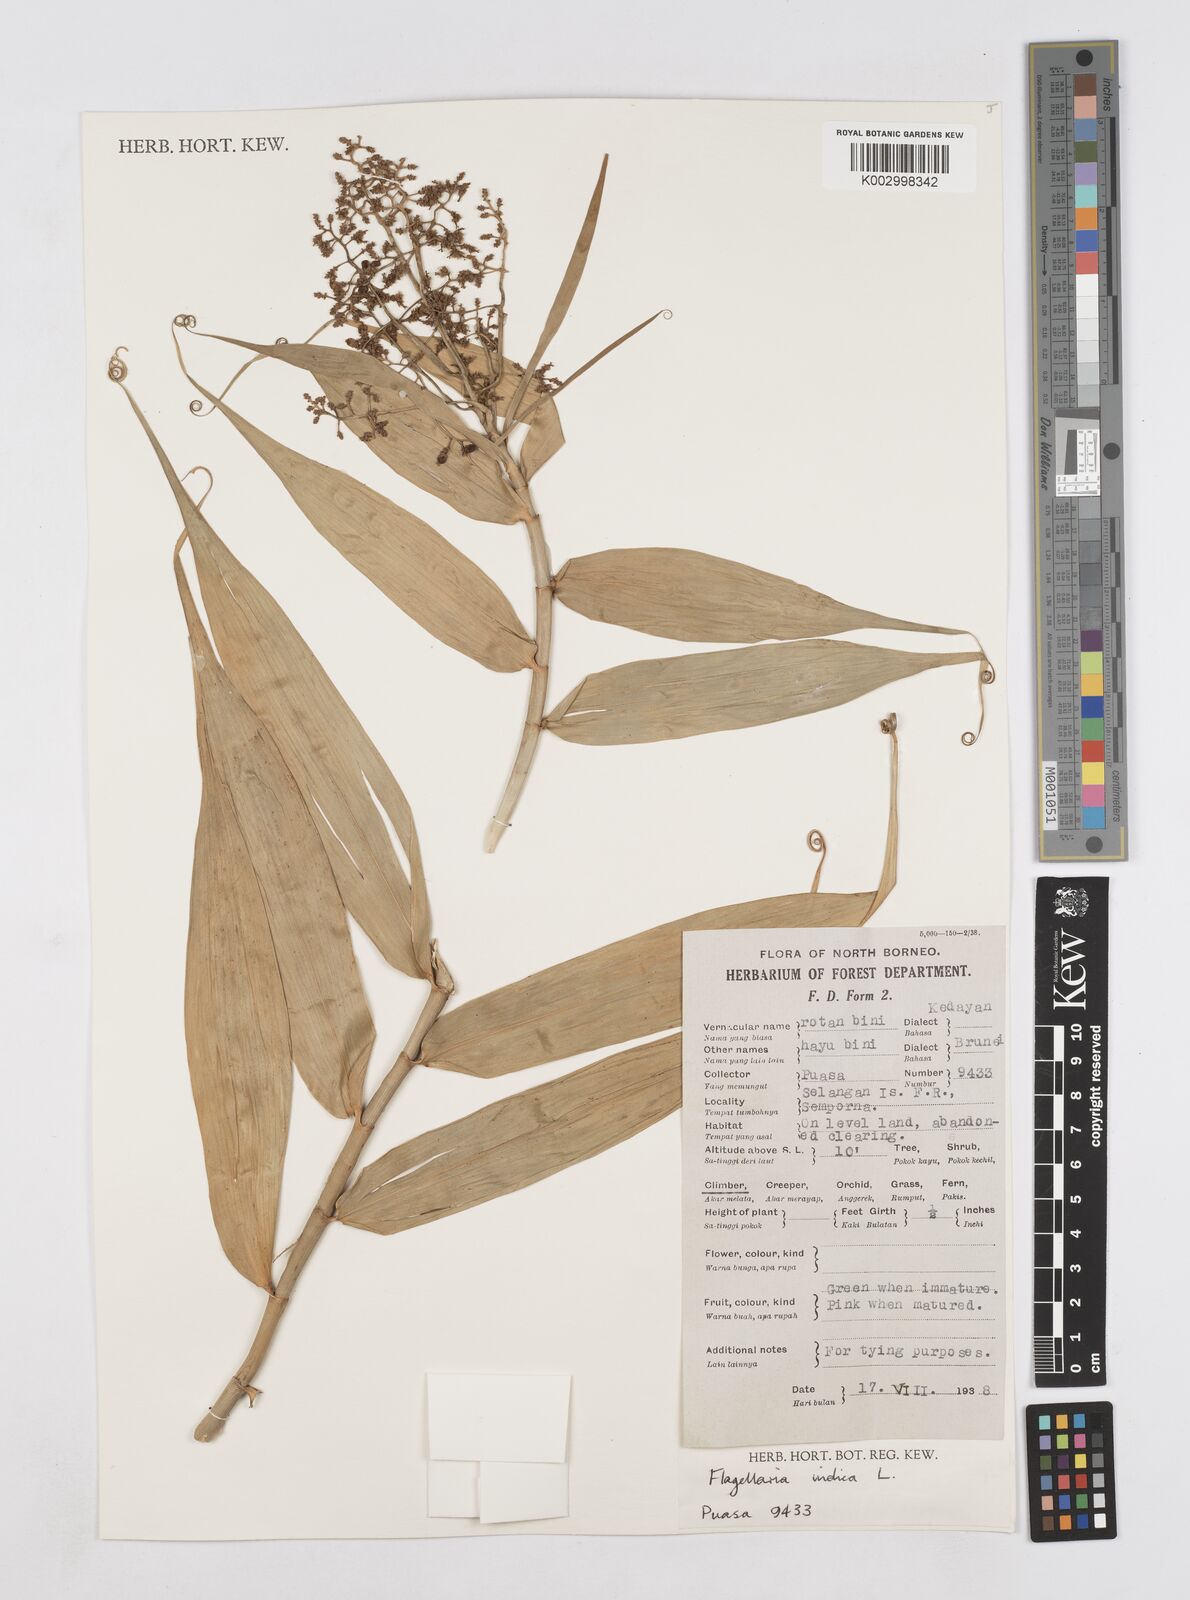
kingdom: Plantae
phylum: Tracheophyta
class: Liliopsida
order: Poales
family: Flagellariaceae
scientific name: Flagellariaceae
